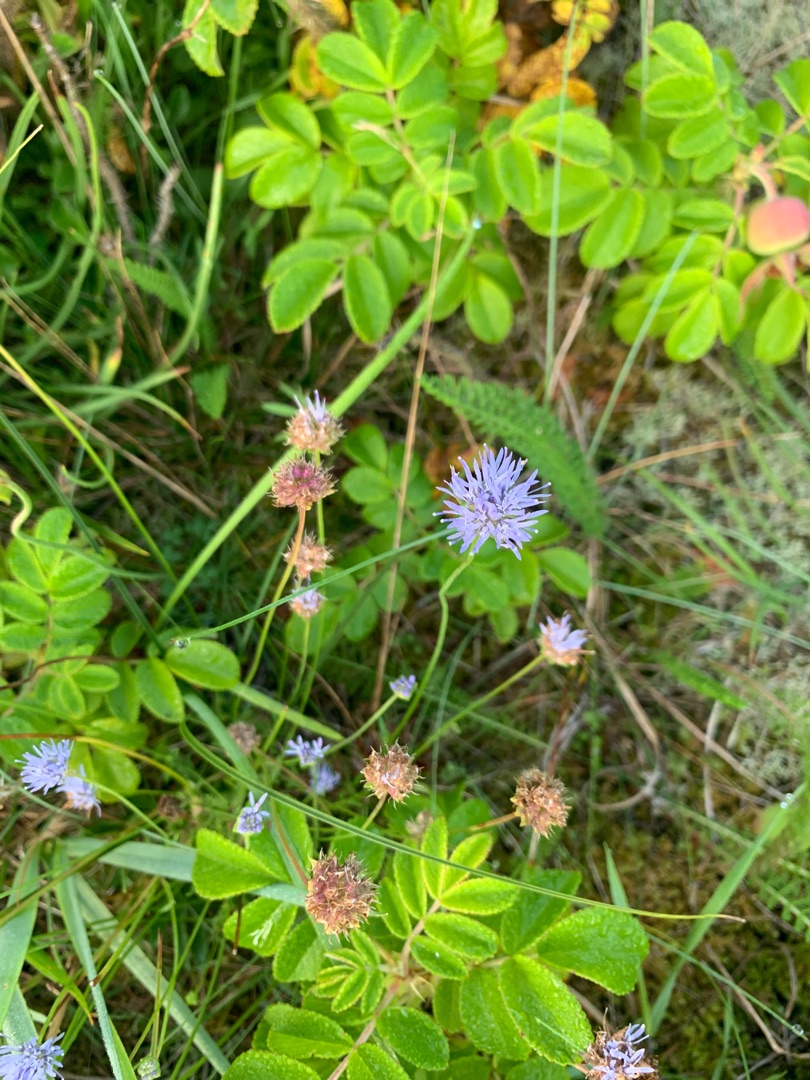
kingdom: Plantae
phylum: Tracheophyta
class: Magnoliopsida
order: Asterales
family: Campanulaceae
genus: Jasione
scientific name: Jasione montana
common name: Blåmunke
